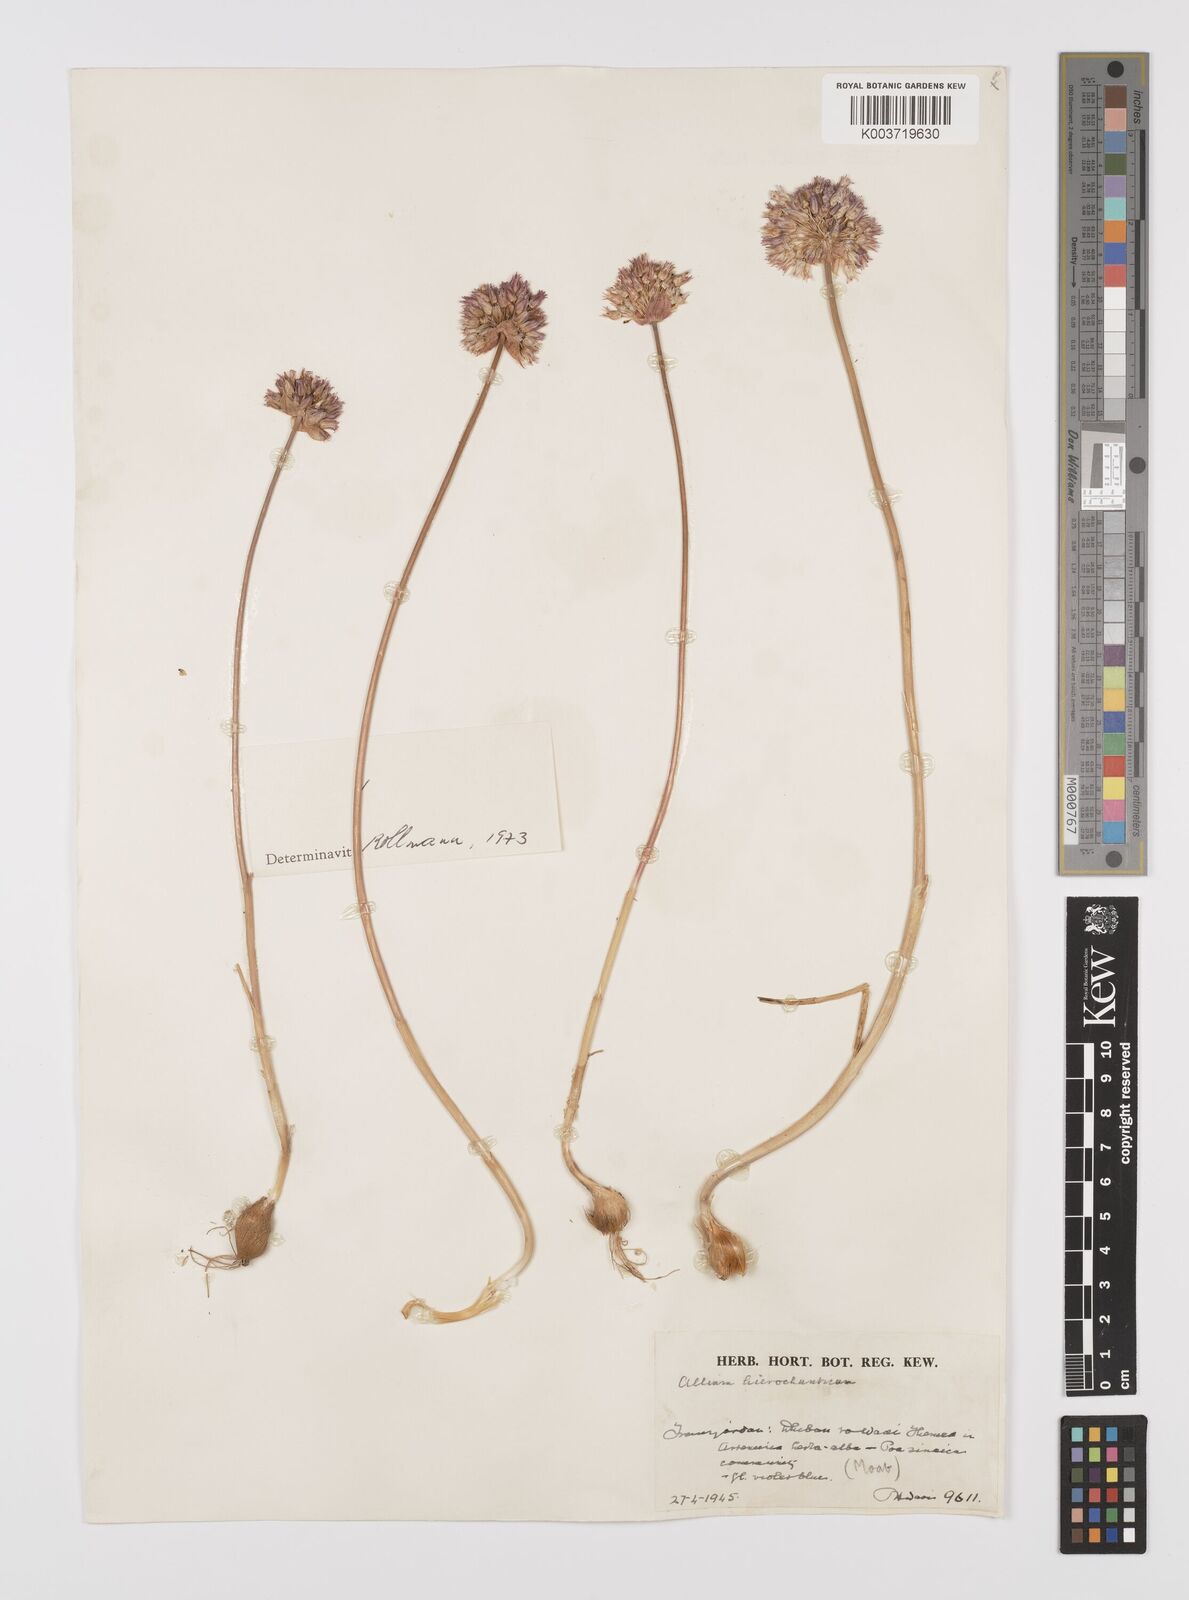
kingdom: Plantae
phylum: Tracheophyta
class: Liliopsida
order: Asparagales
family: Amaryllidaceae
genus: Allium
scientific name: Allium hierosolymorum
